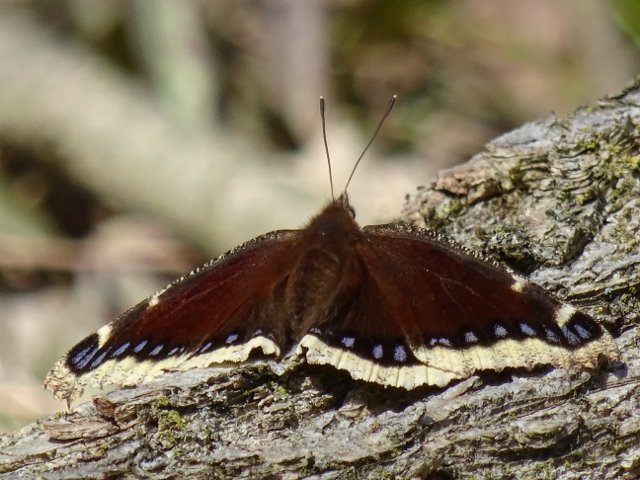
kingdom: Animalia
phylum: Arthropoda
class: Insecta
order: Lepidoptera
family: Nymphalidae
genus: Nymphalis
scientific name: Nymphalis antiopa
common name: Mourning Cloak
